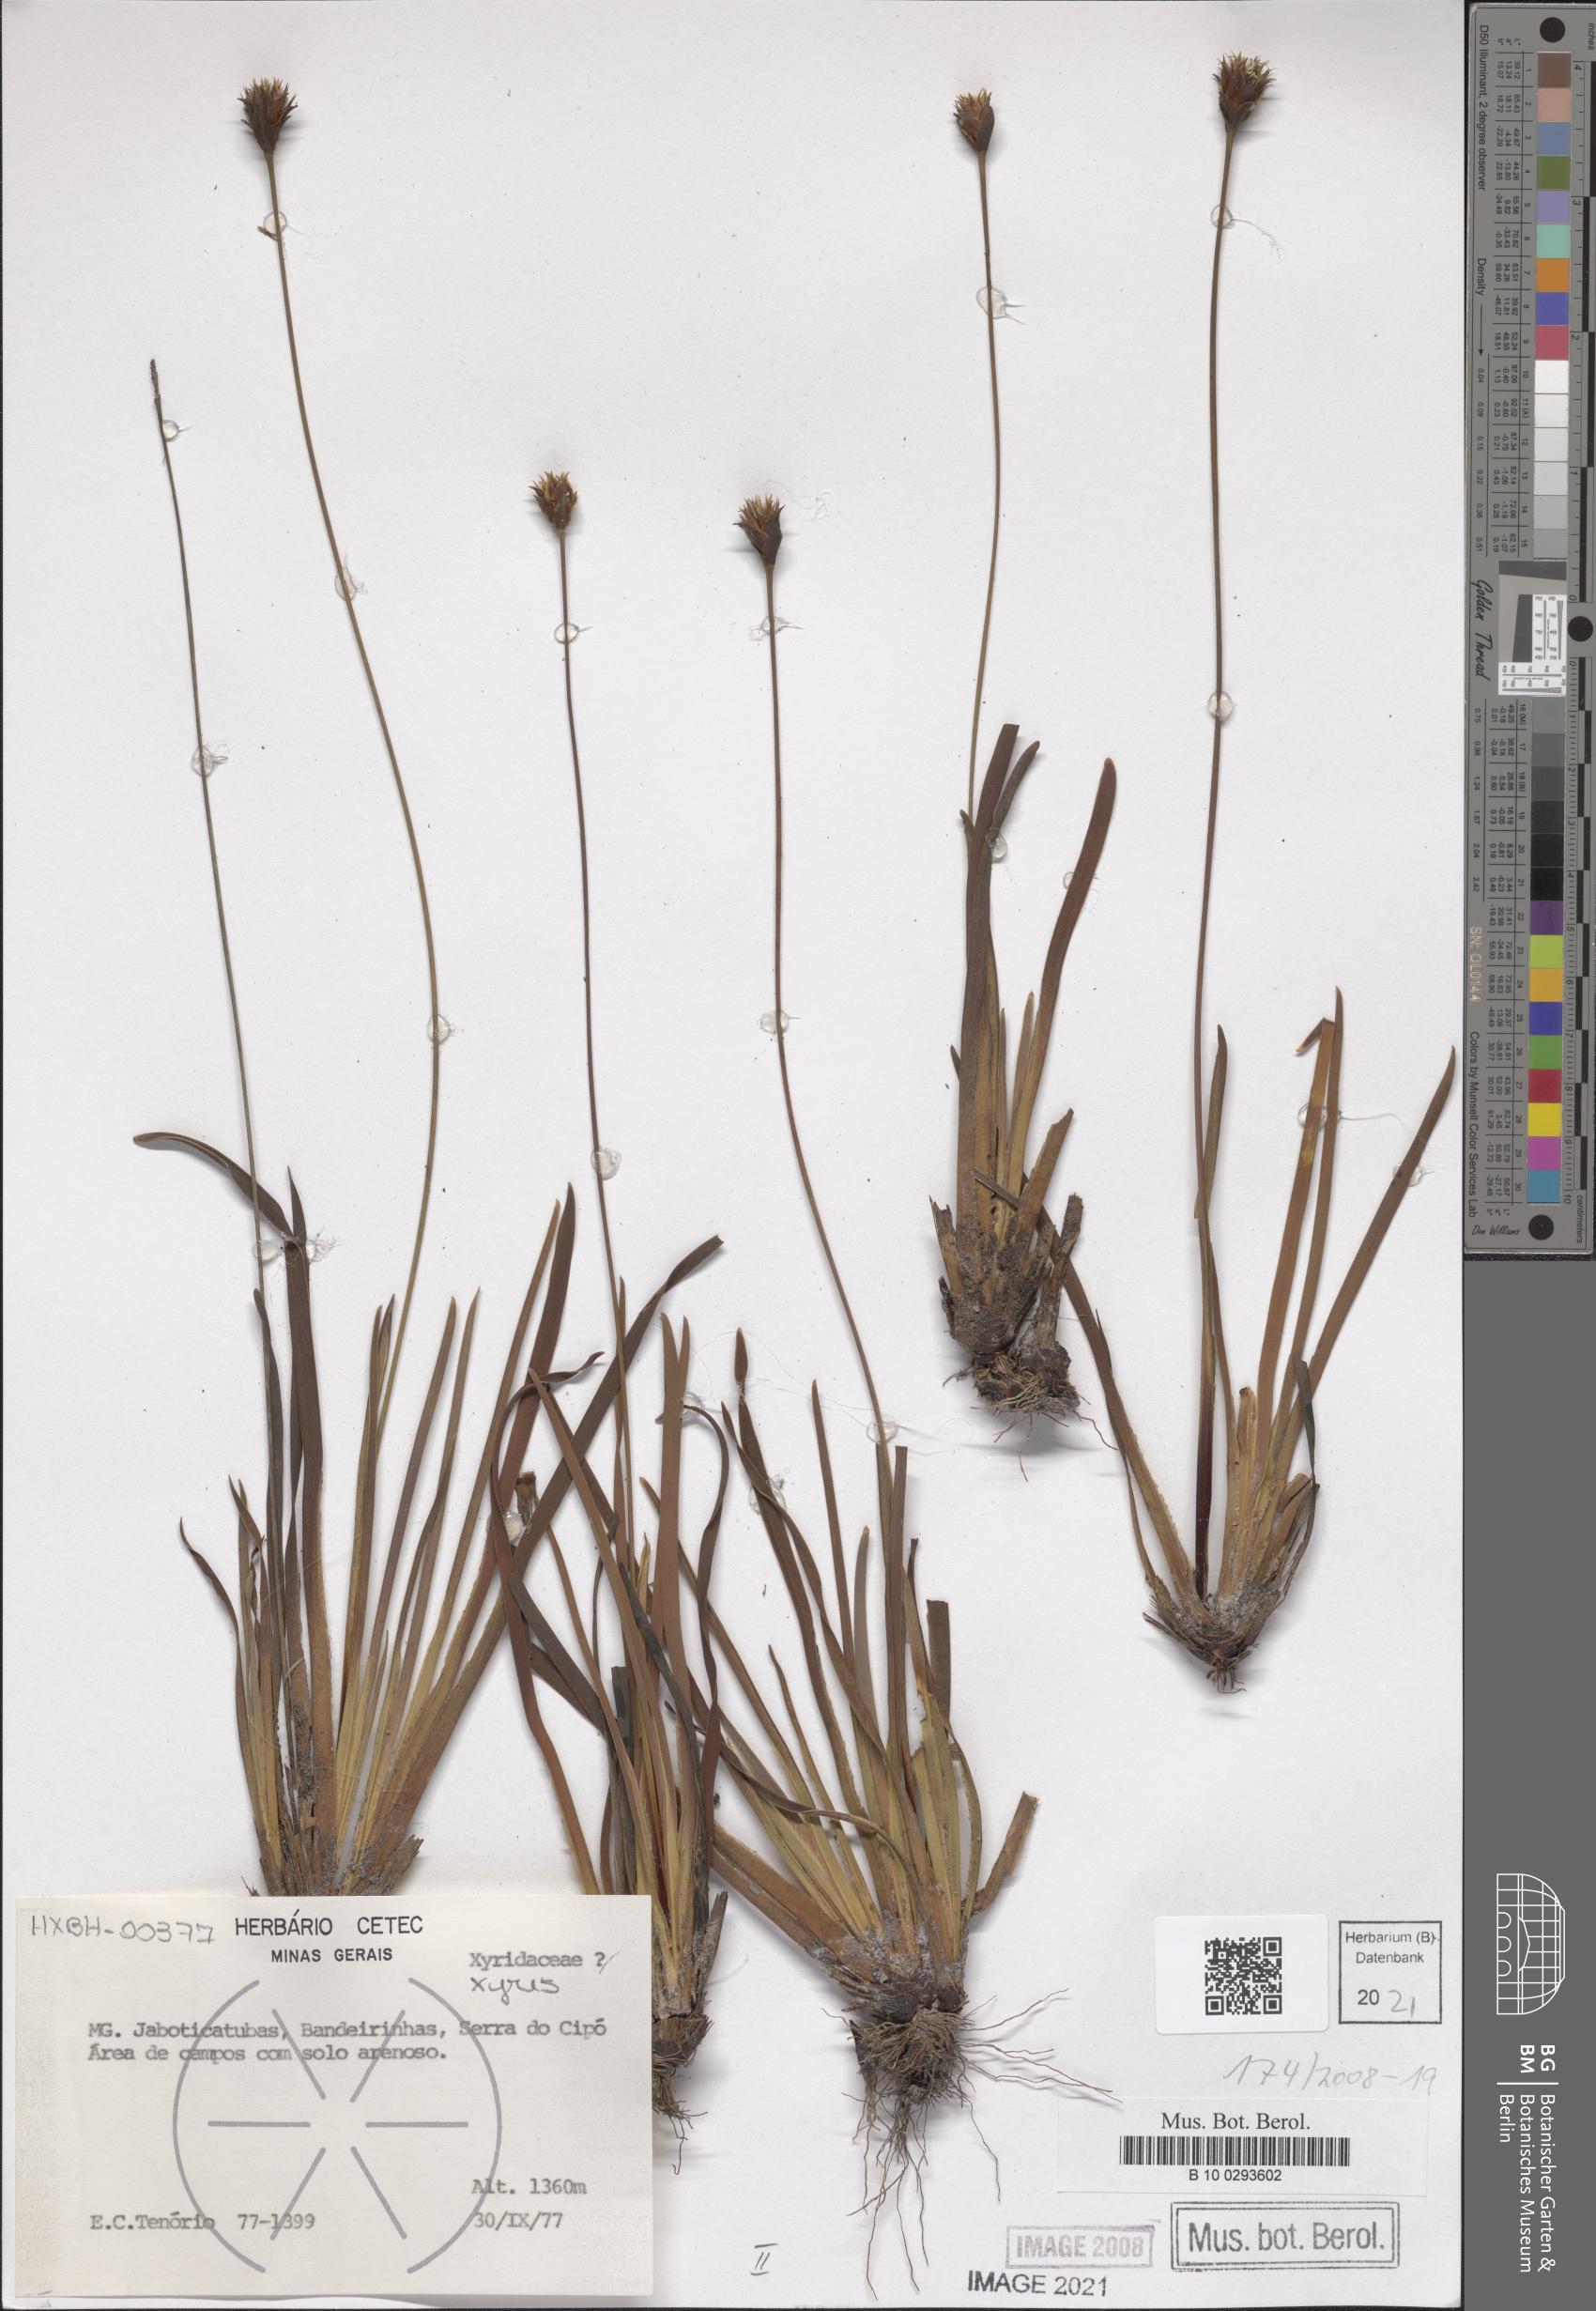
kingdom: Plantae
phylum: Tracheophyta
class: Liliopsida
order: Poales
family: Xyridaceae
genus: Xyris
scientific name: Xyris
